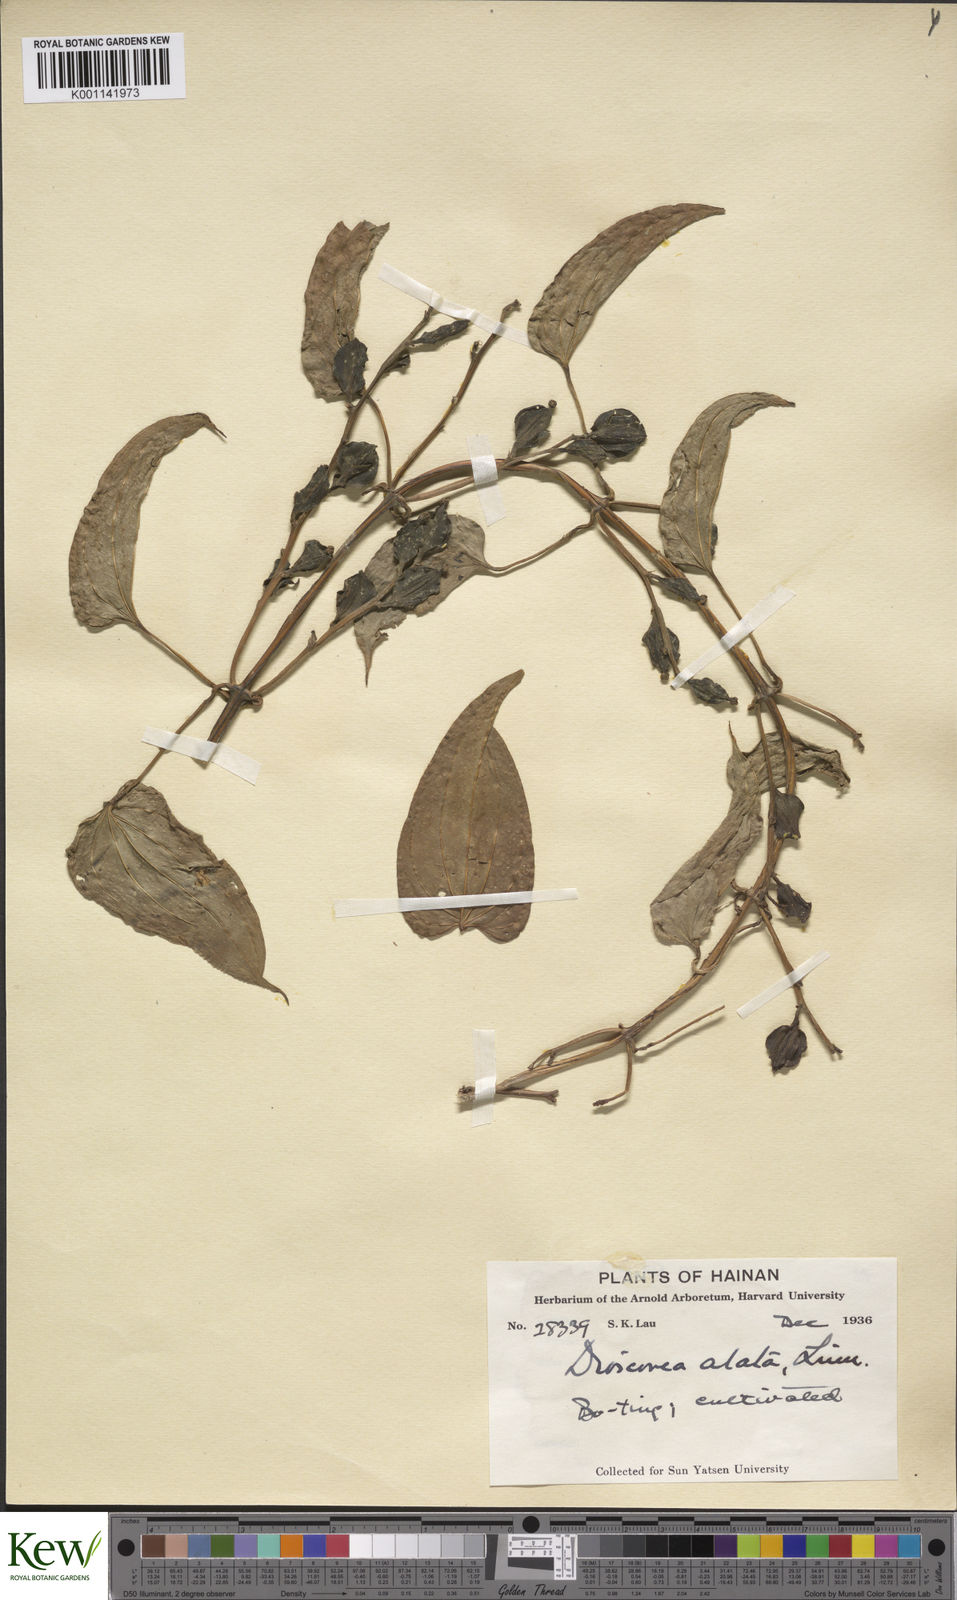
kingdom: Plantae
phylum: Tracheophyta
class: Liliopsida
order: Dioscoreales
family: Dioscoreaceae
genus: Dioscorea
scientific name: Dioscorea alata
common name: Water yam
